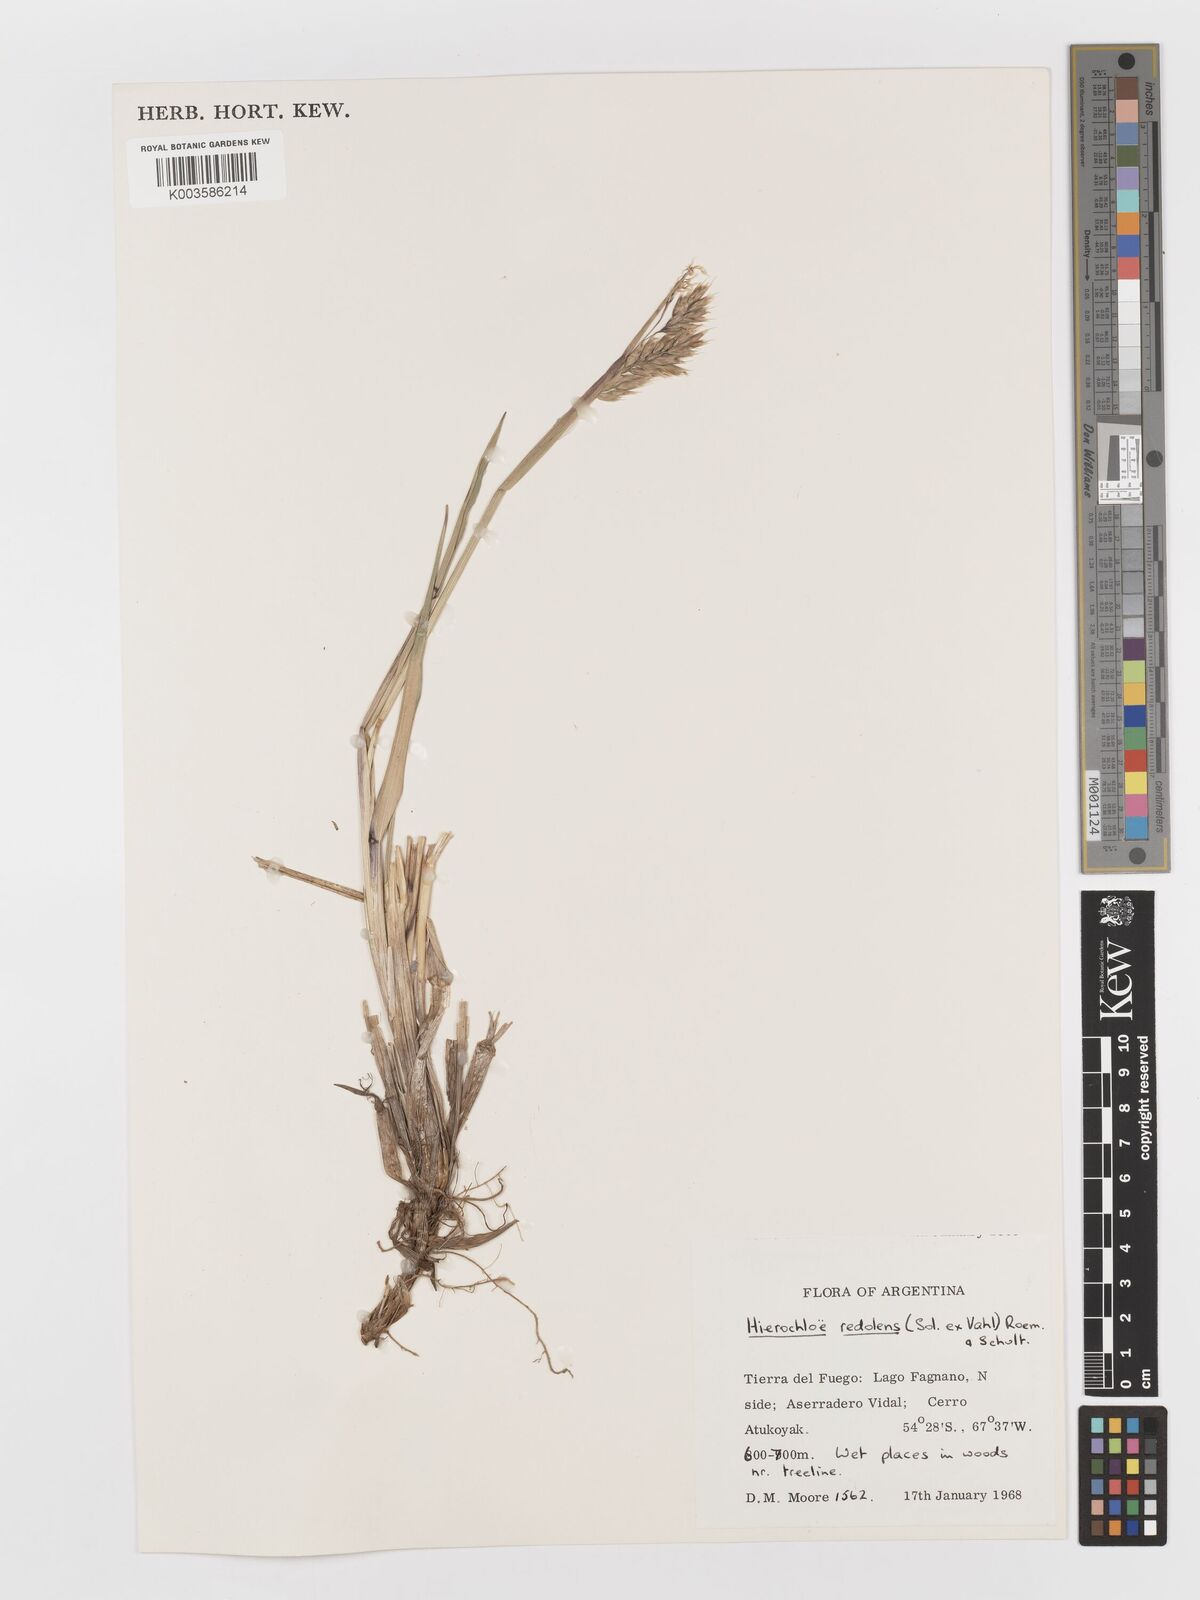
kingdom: Plantae
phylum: Tracheophyta
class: Liliopsida
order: Poales
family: Poaceae
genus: Anthoxanthum
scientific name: Anthoxanthum redolens
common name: Sweet holy grass
